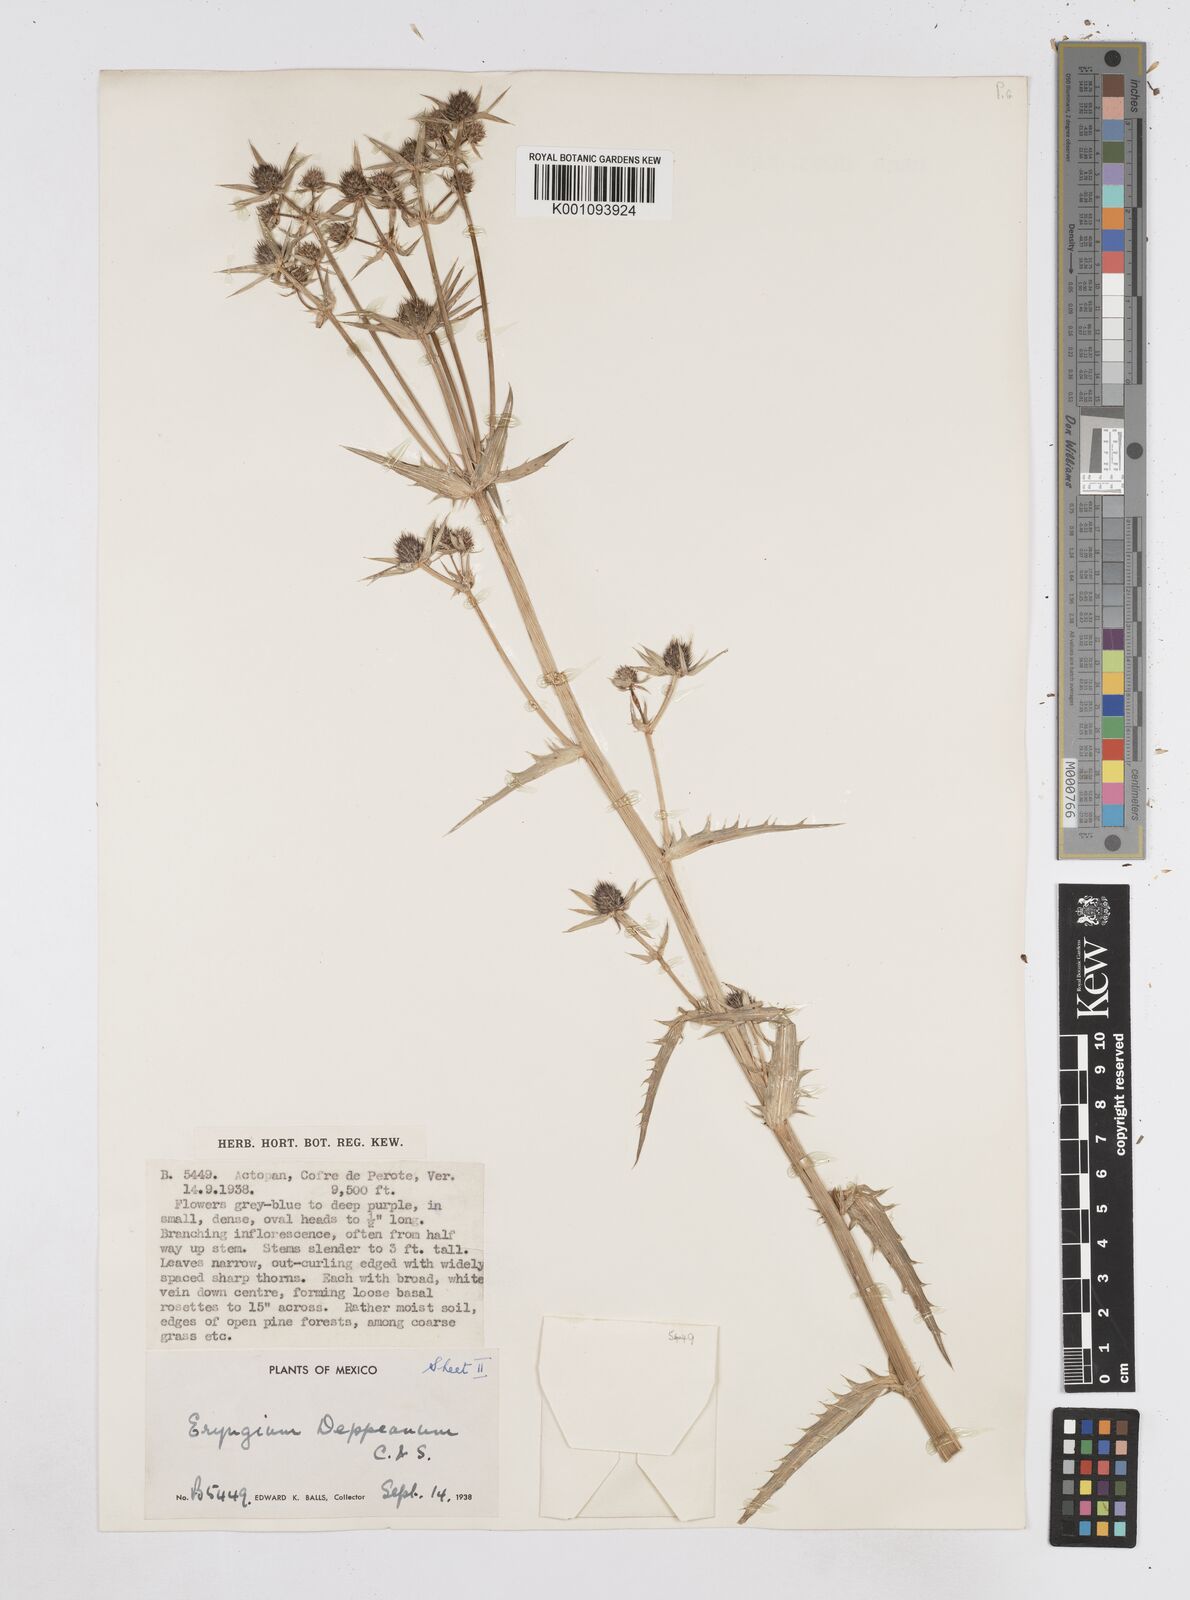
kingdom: Plantae
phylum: Tracheophyta
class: Magnoliopsida
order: Apiales
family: Apiaceae
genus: Eryngium
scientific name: Eryngium
